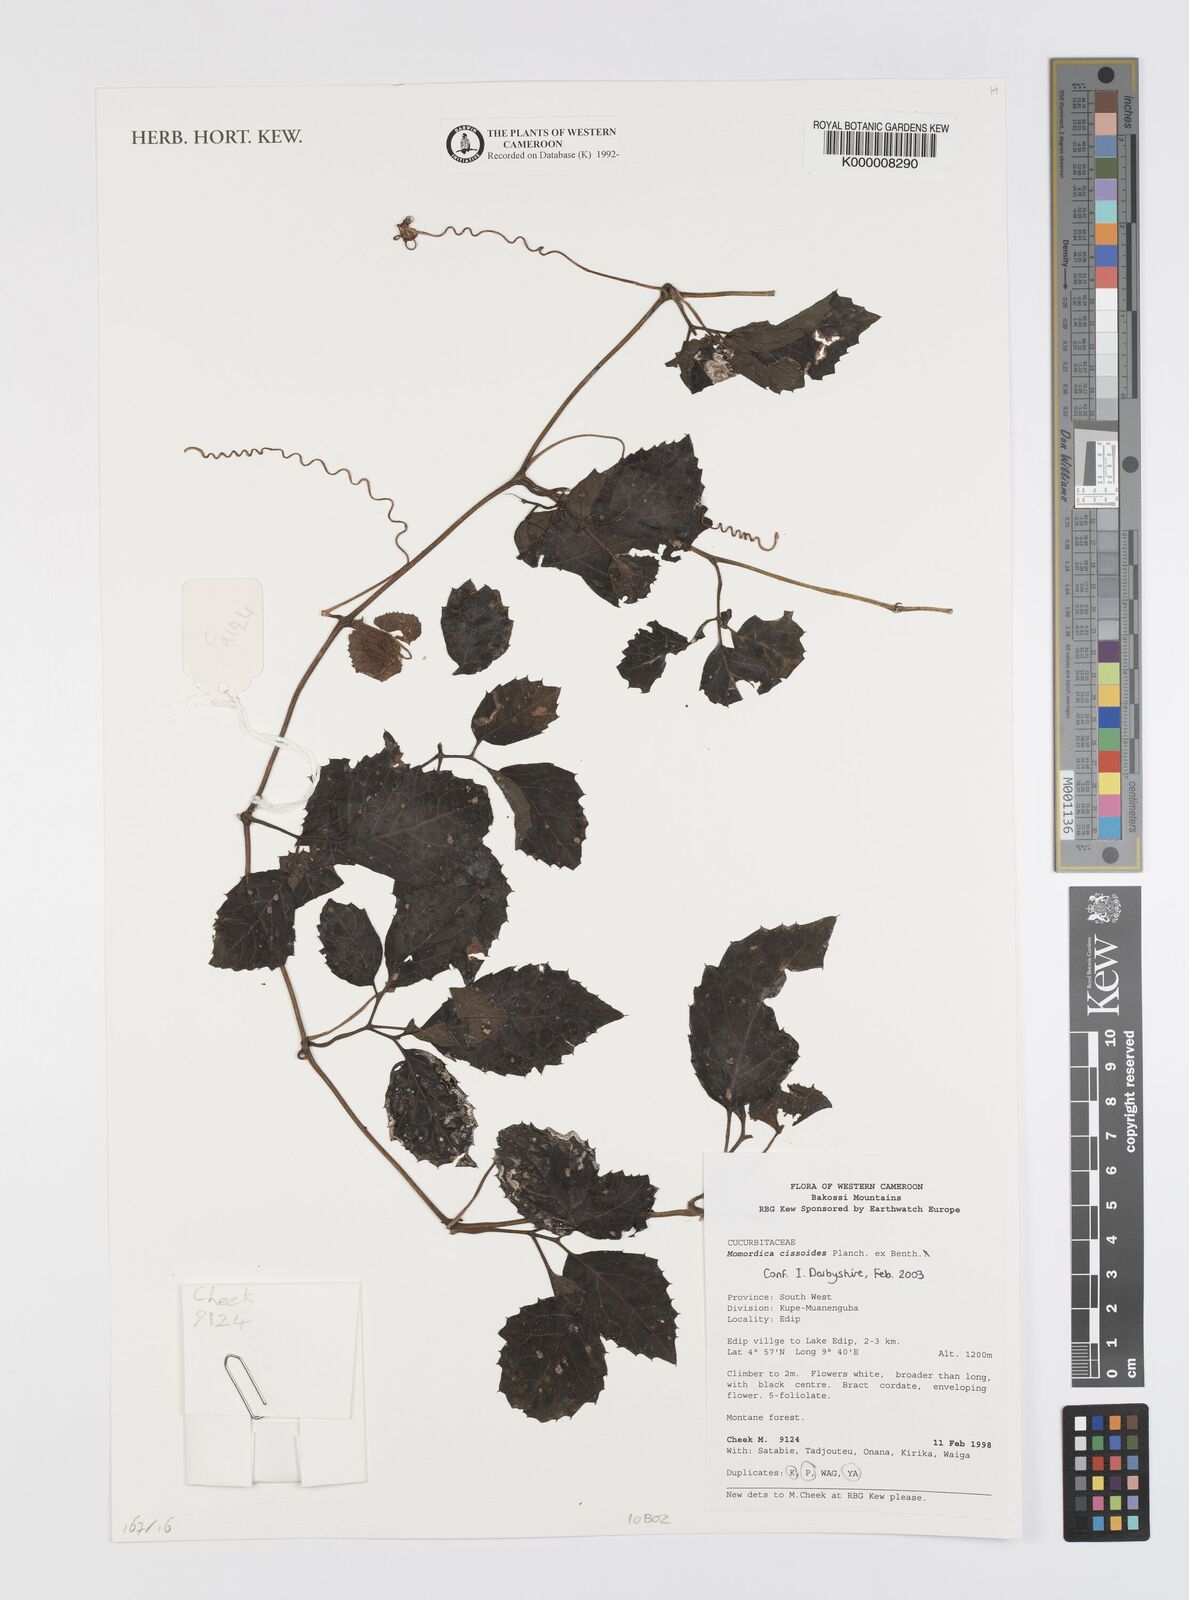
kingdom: Plantae
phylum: Tracheophyta
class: Magnoliopsida
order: Cucurbitales
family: Cucurbitaceae
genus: Momordica
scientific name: Momordica cissoides
